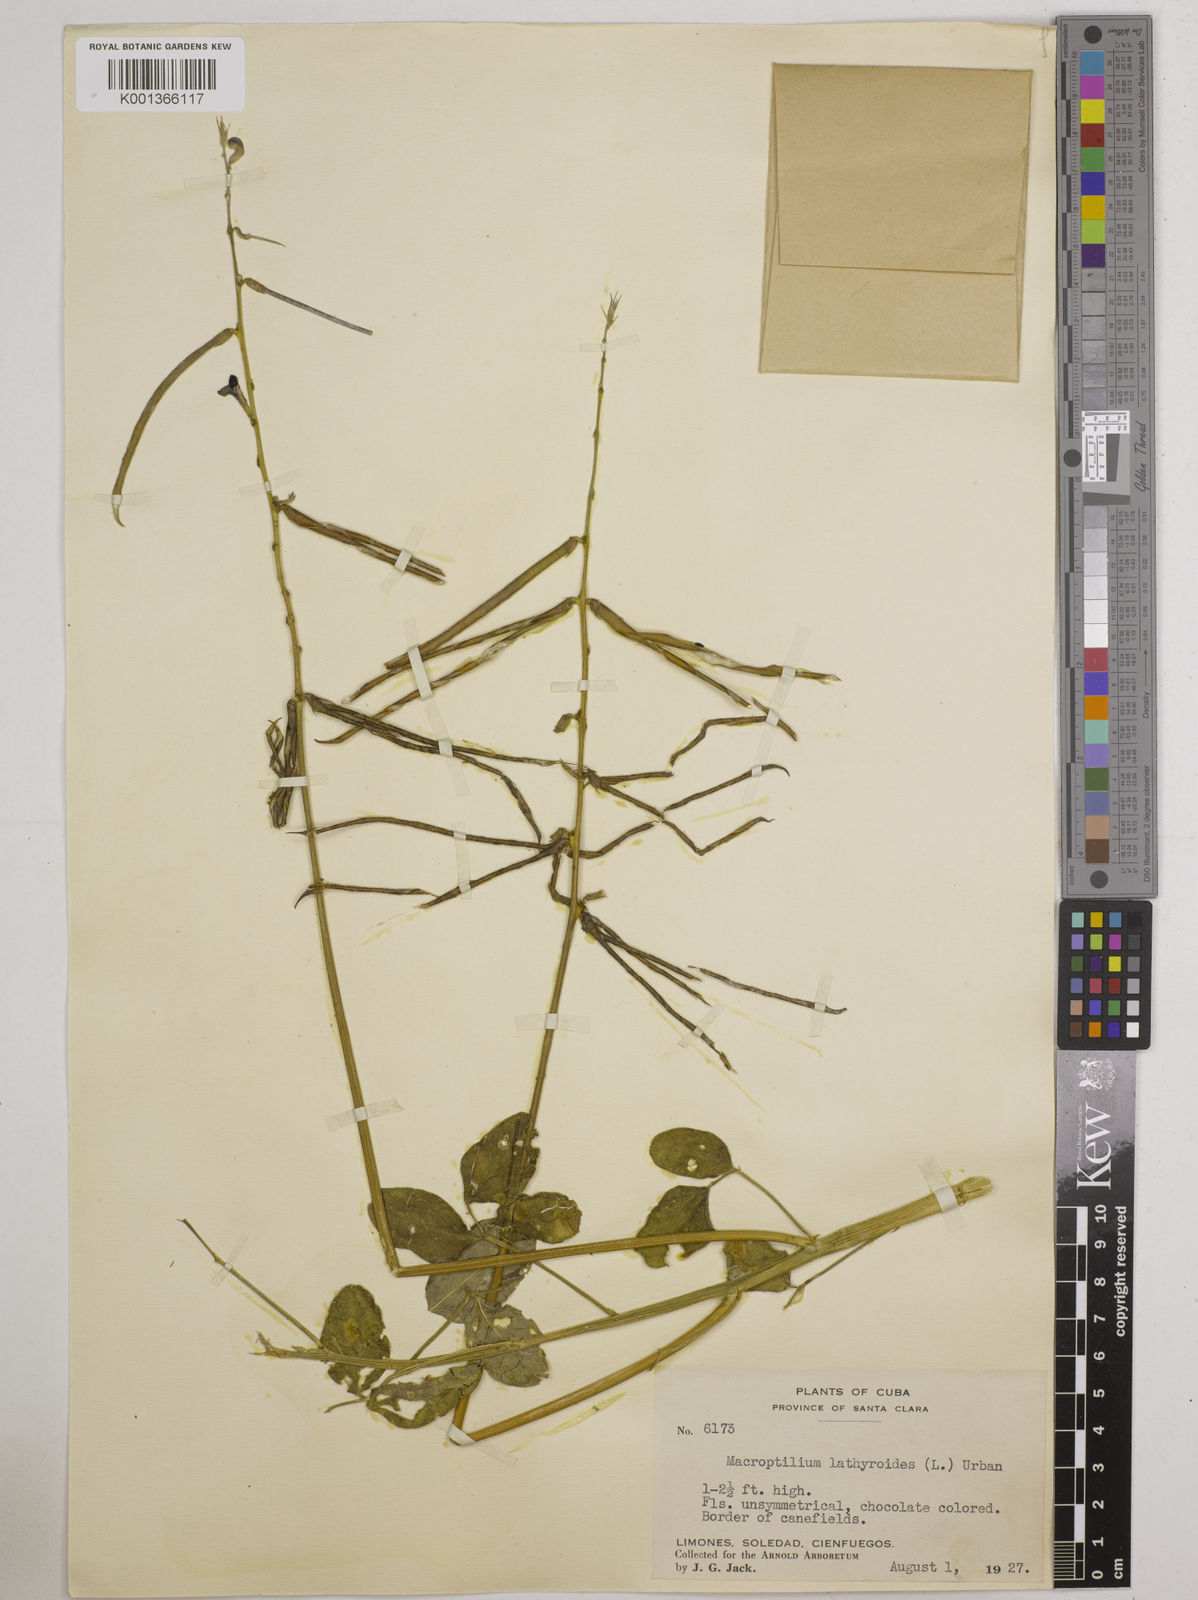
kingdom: Plantae
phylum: Tracheophyta
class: Magnoliopsida
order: Fabales
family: Fabaceae
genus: Macroptilium
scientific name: Macroptilium lathyroides
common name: Wild bushbean
